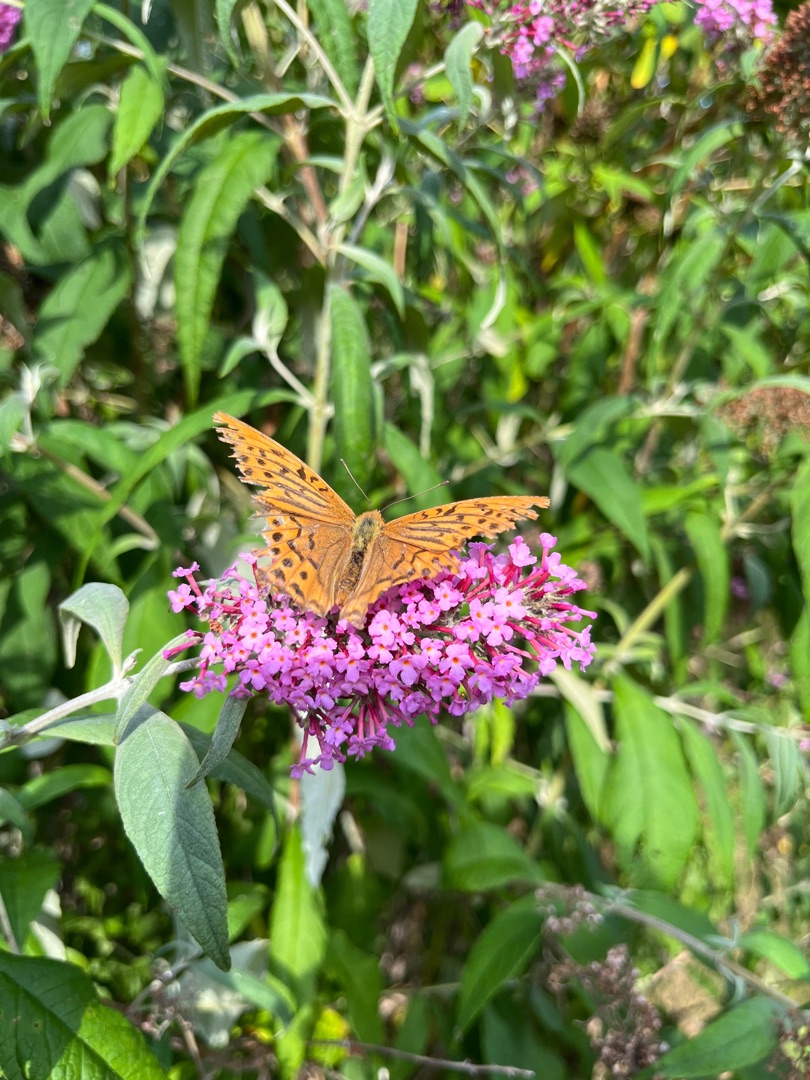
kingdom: Animalia
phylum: Arthropoda
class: Insecta
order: Lepidoptera
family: Nymphalidae
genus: Argynnis
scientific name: Argynnis paphia
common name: Kejserkåbe
